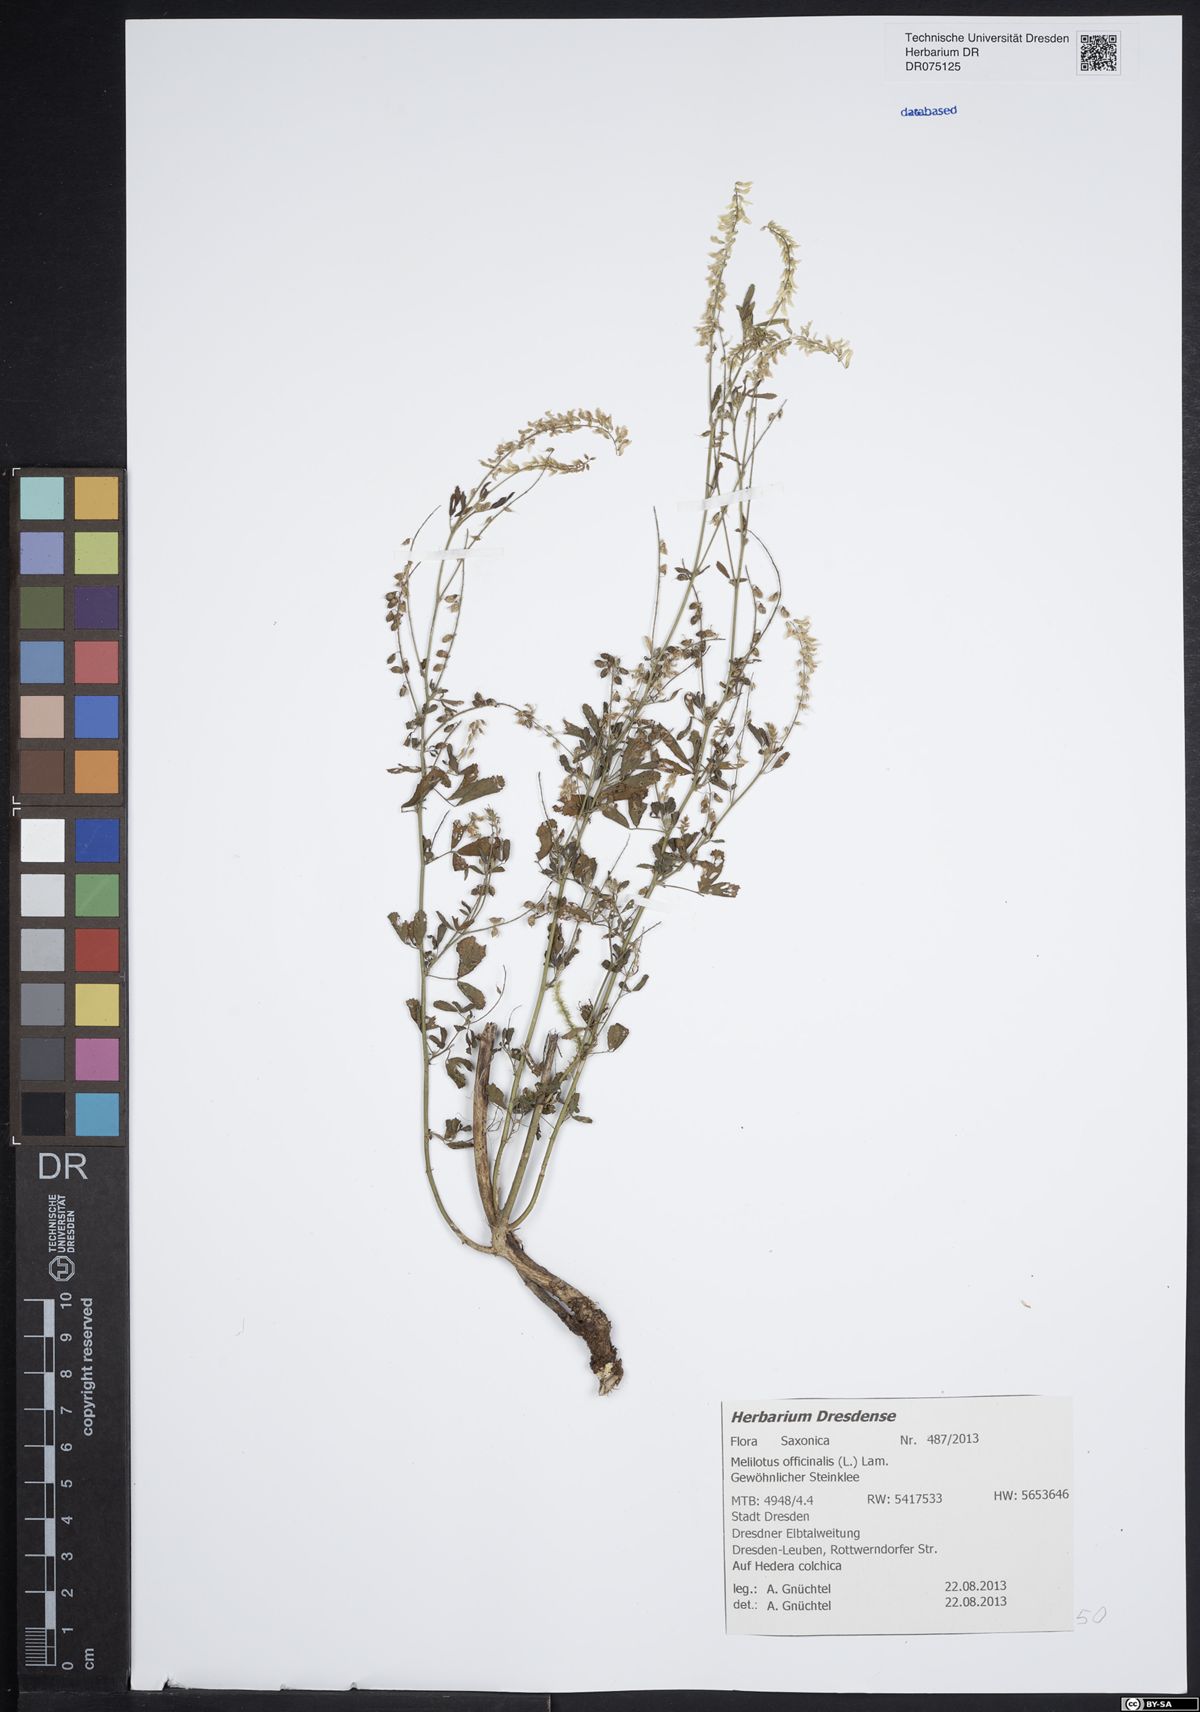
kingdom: Plantae
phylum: Tracheophyta
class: Magnoliopsida
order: Fabales
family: Fabaceae
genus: Melilotus
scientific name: Melilotus officinalis
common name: Sweetclover
